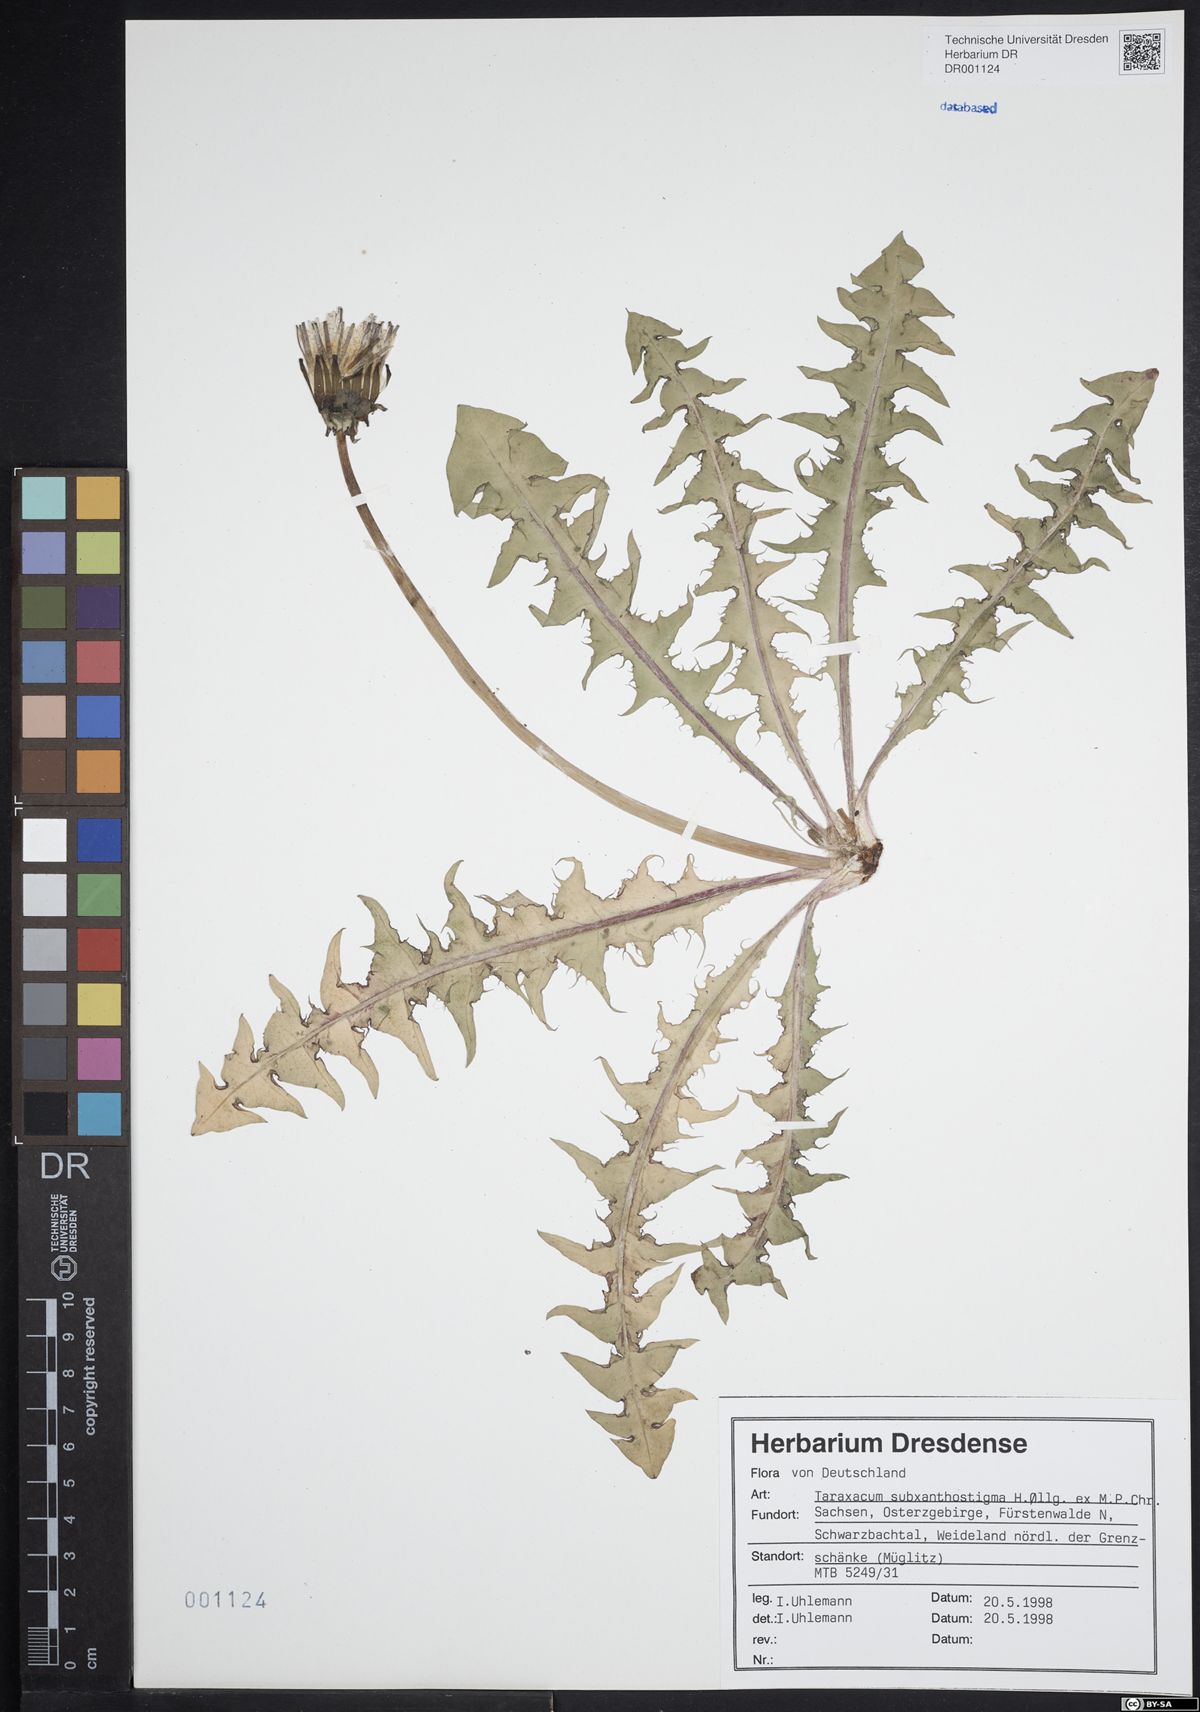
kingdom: Plantae
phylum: Tracheophyta
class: Magnoliopsida
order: Asterales
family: Asteraceae
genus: Taraxacum
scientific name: Taraxacum subxanthostigma
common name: Purple-stalked dandelion
